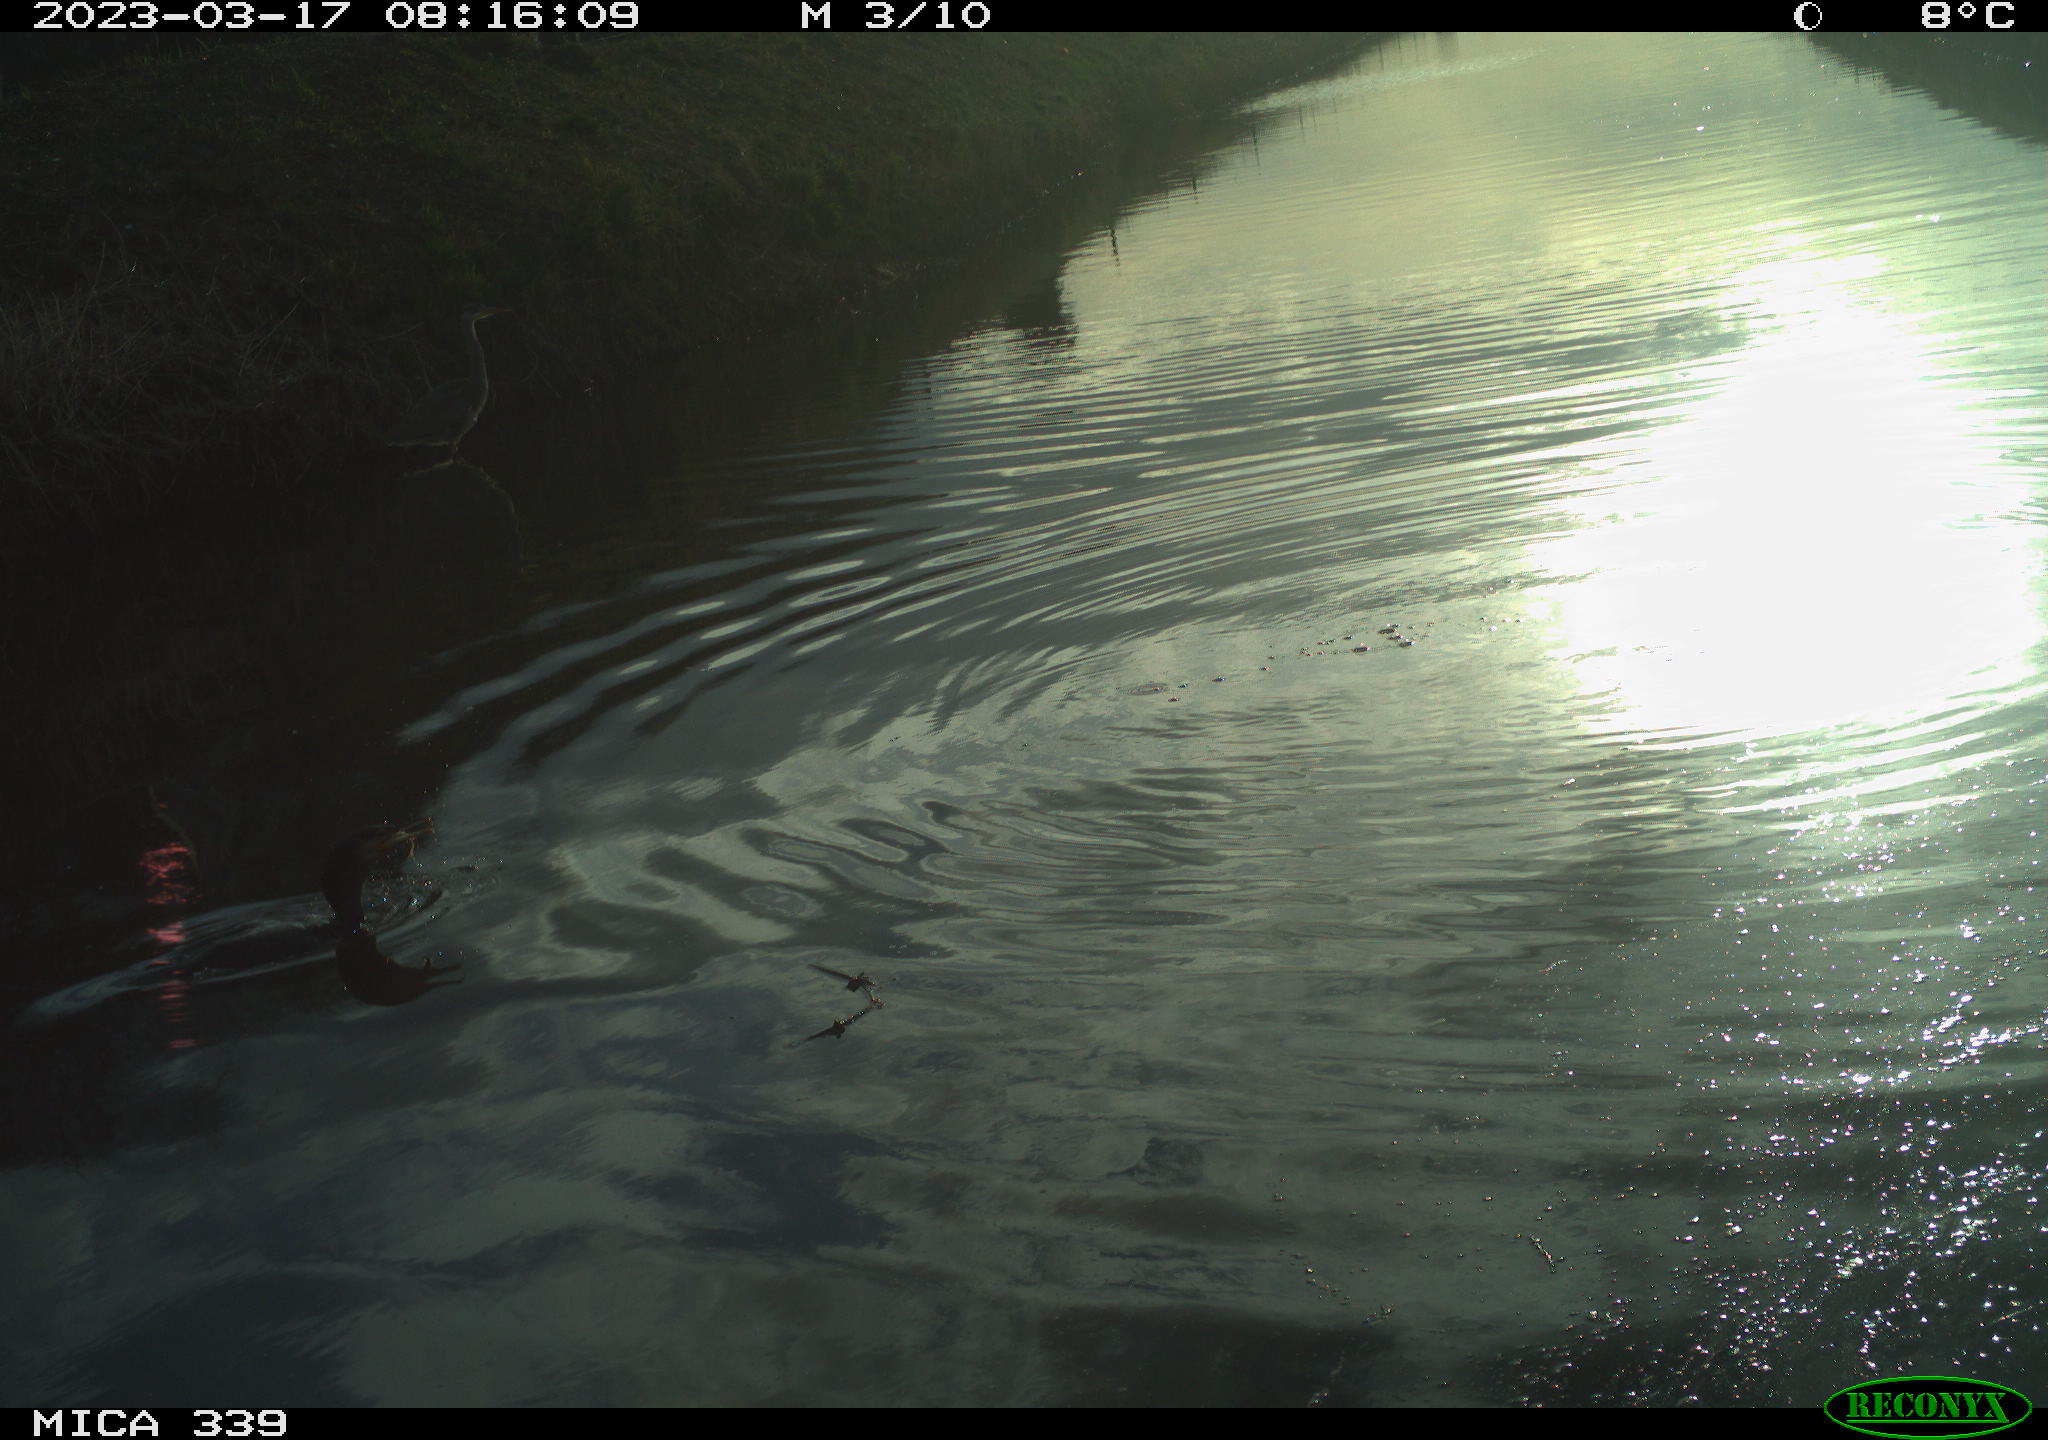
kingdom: Animalia
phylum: Chordata
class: Aves
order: Anseriformes
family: Anatidae
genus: Anas
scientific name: Anas
